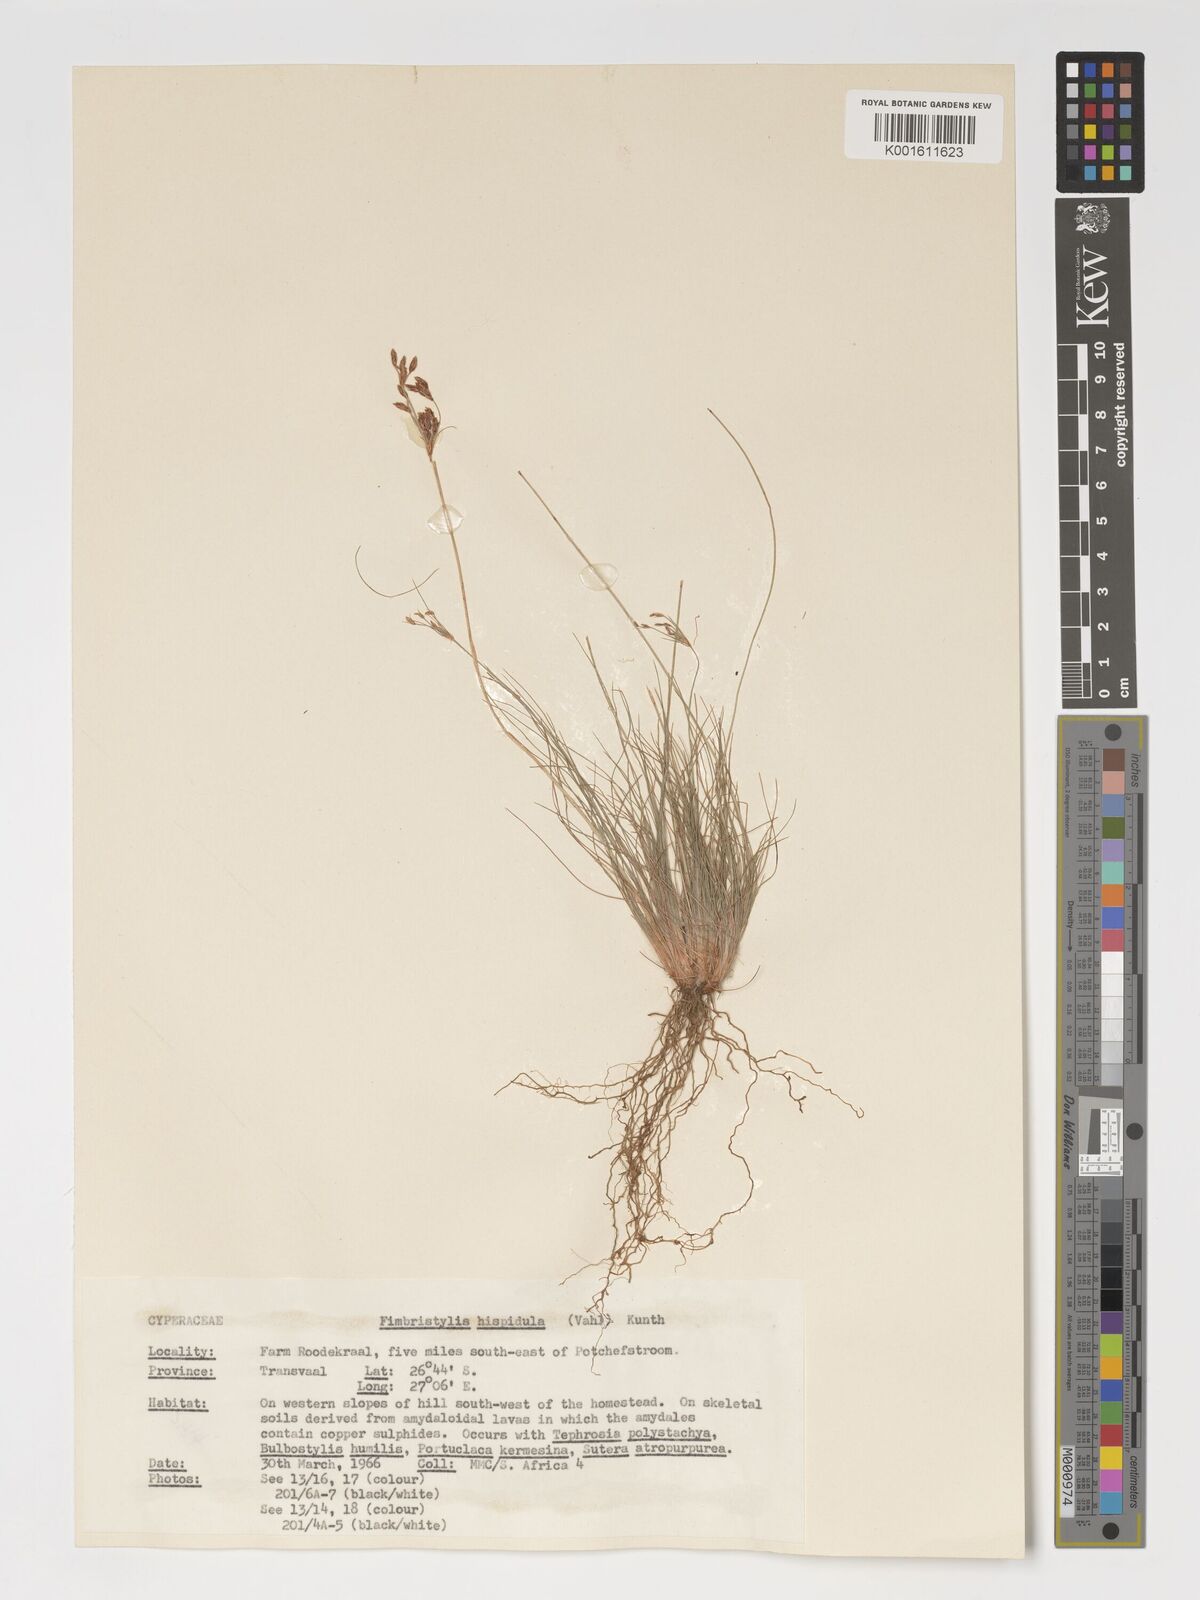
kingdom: Plantae
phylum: Tracheophyta
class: Liliopsida
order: Poales
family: Cyperaceae
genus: Bulbostylis
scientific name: Bulbostylis hispidula
